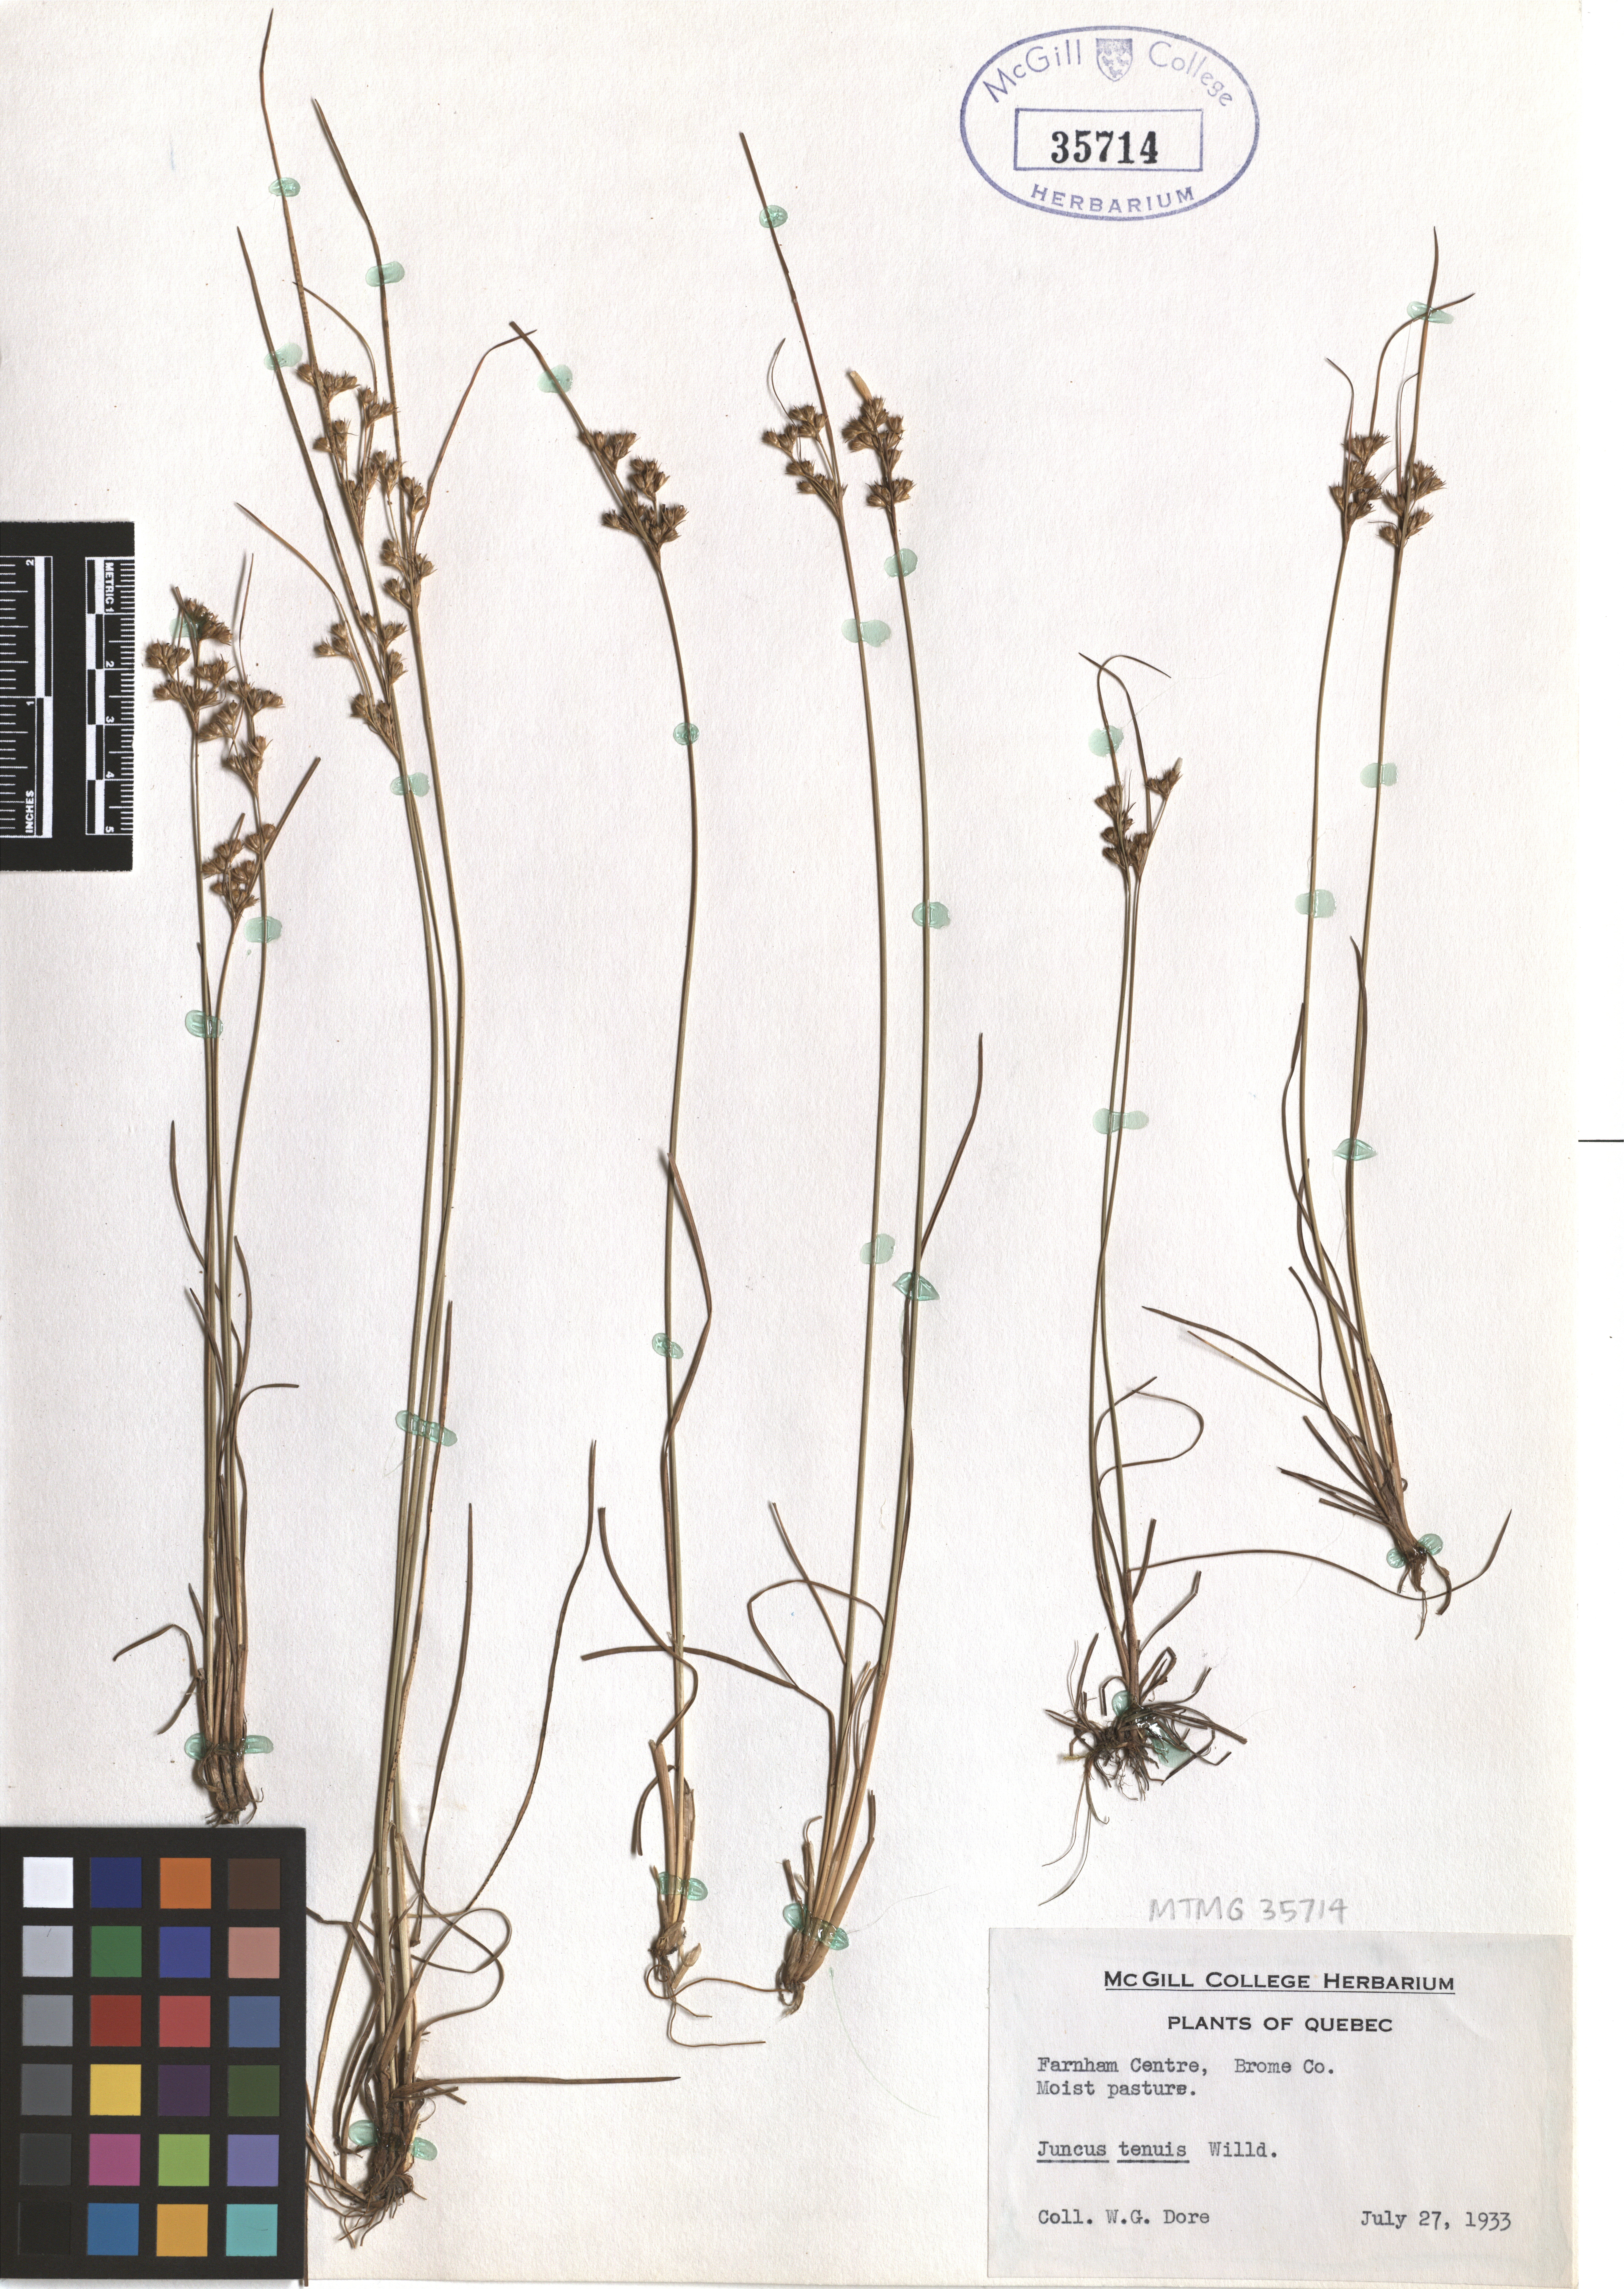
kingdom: Plantae
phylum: Tracheophyta
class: Liliopsida
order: Poales
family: Juncaceae
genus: Juncus
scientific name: Juncus tenuis
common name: Slender rush
